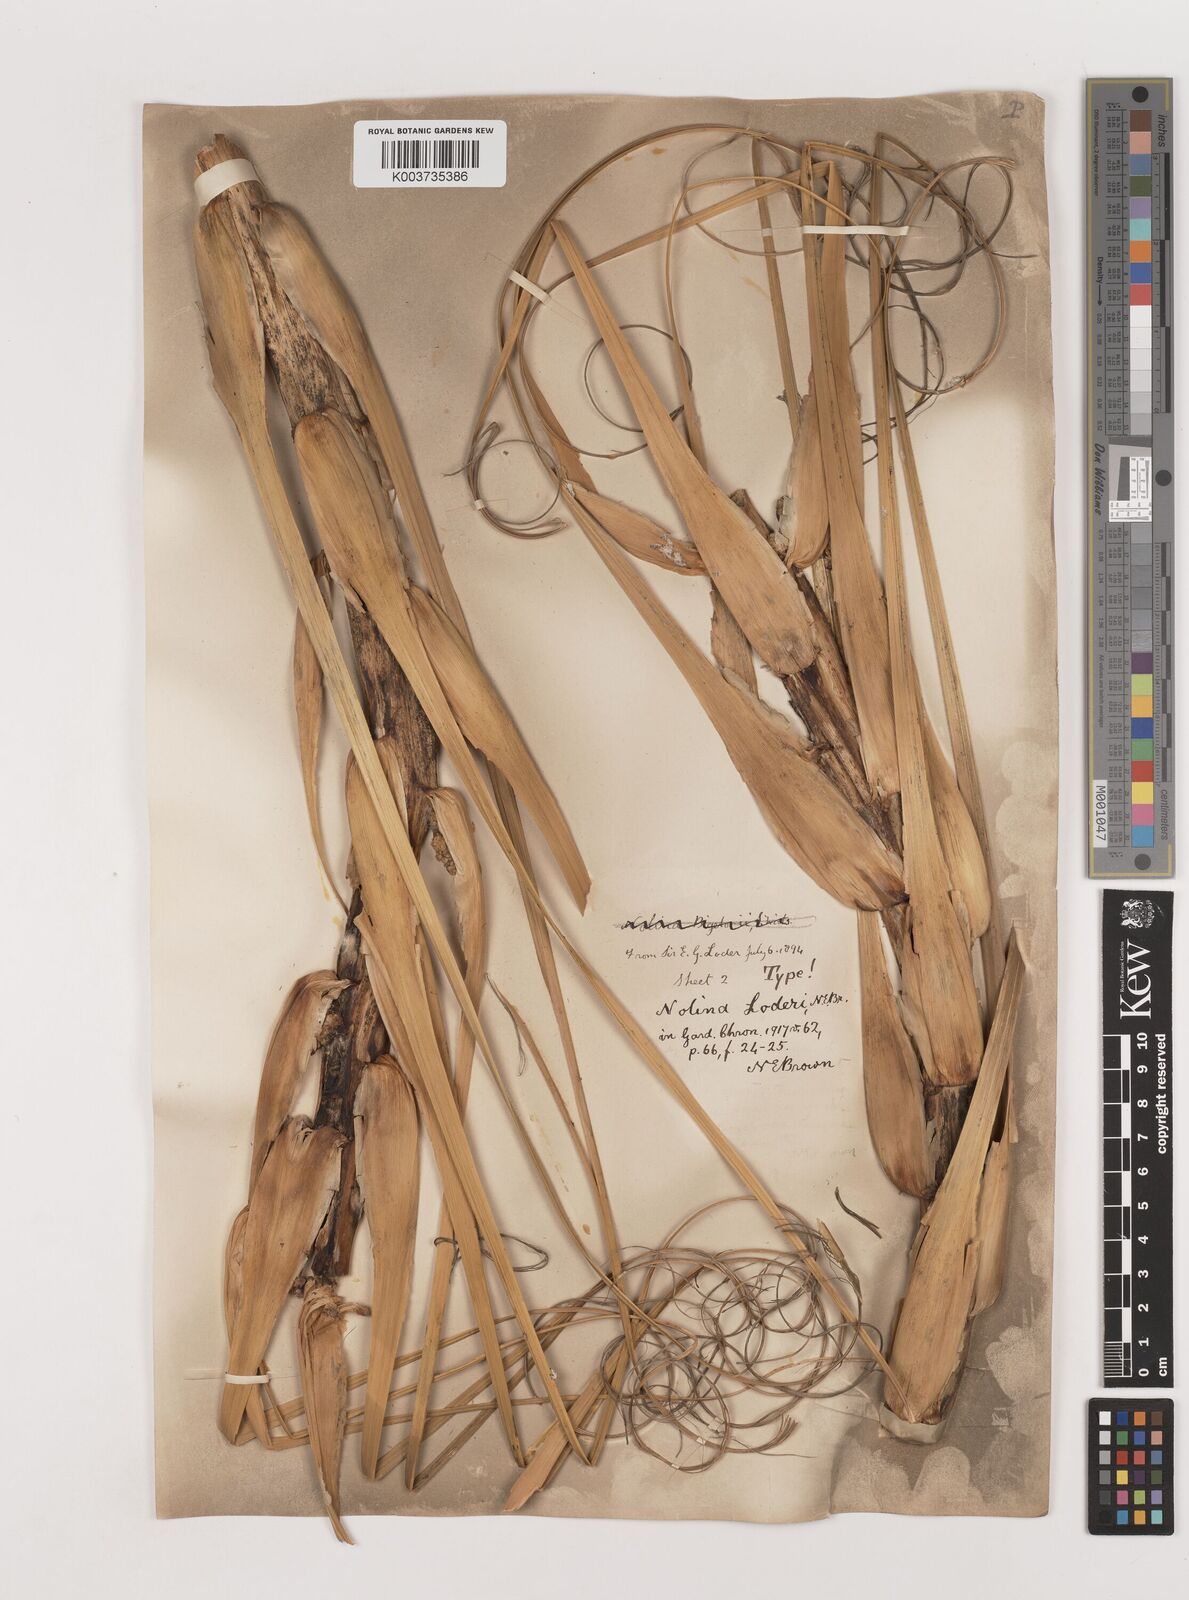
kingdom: Plantae
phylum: Tracheophyta
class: Liliopsida
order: Asparagales
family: Asparagaceae
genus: Nolina
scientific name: Nolina loderi
